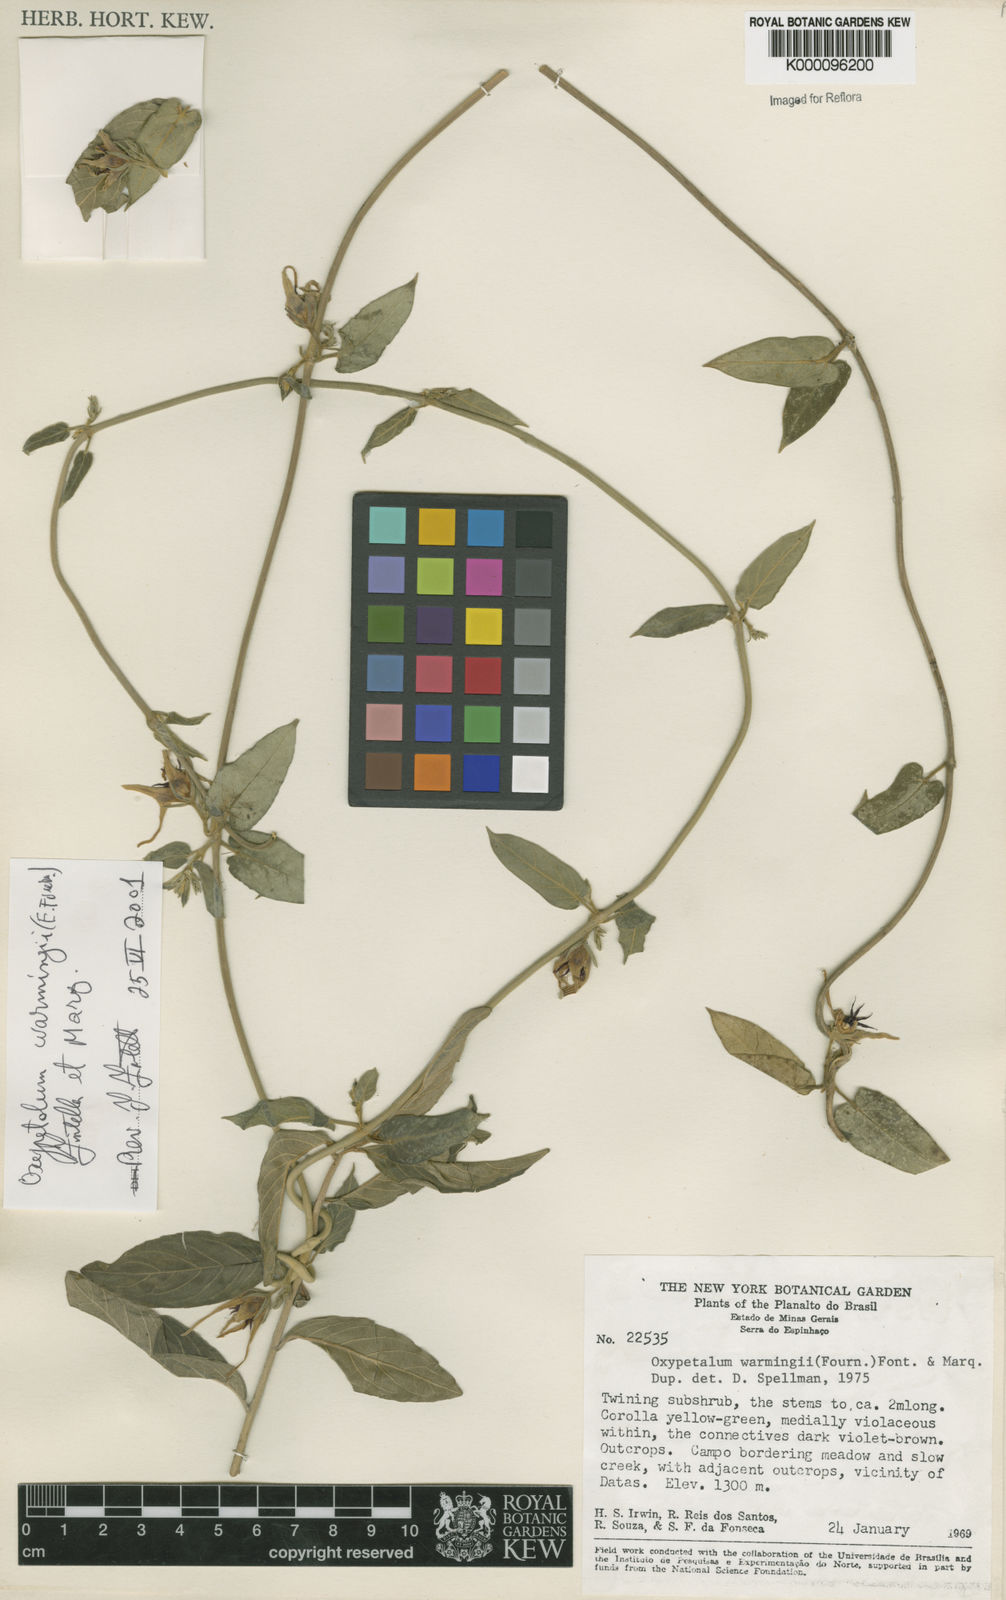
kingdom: Plantae
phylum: Tracheophyta
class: Magnoliopsida
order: Gentianales
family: Apocynaceae
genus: Oxypetalum
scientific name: Oxypetalum warmingii
